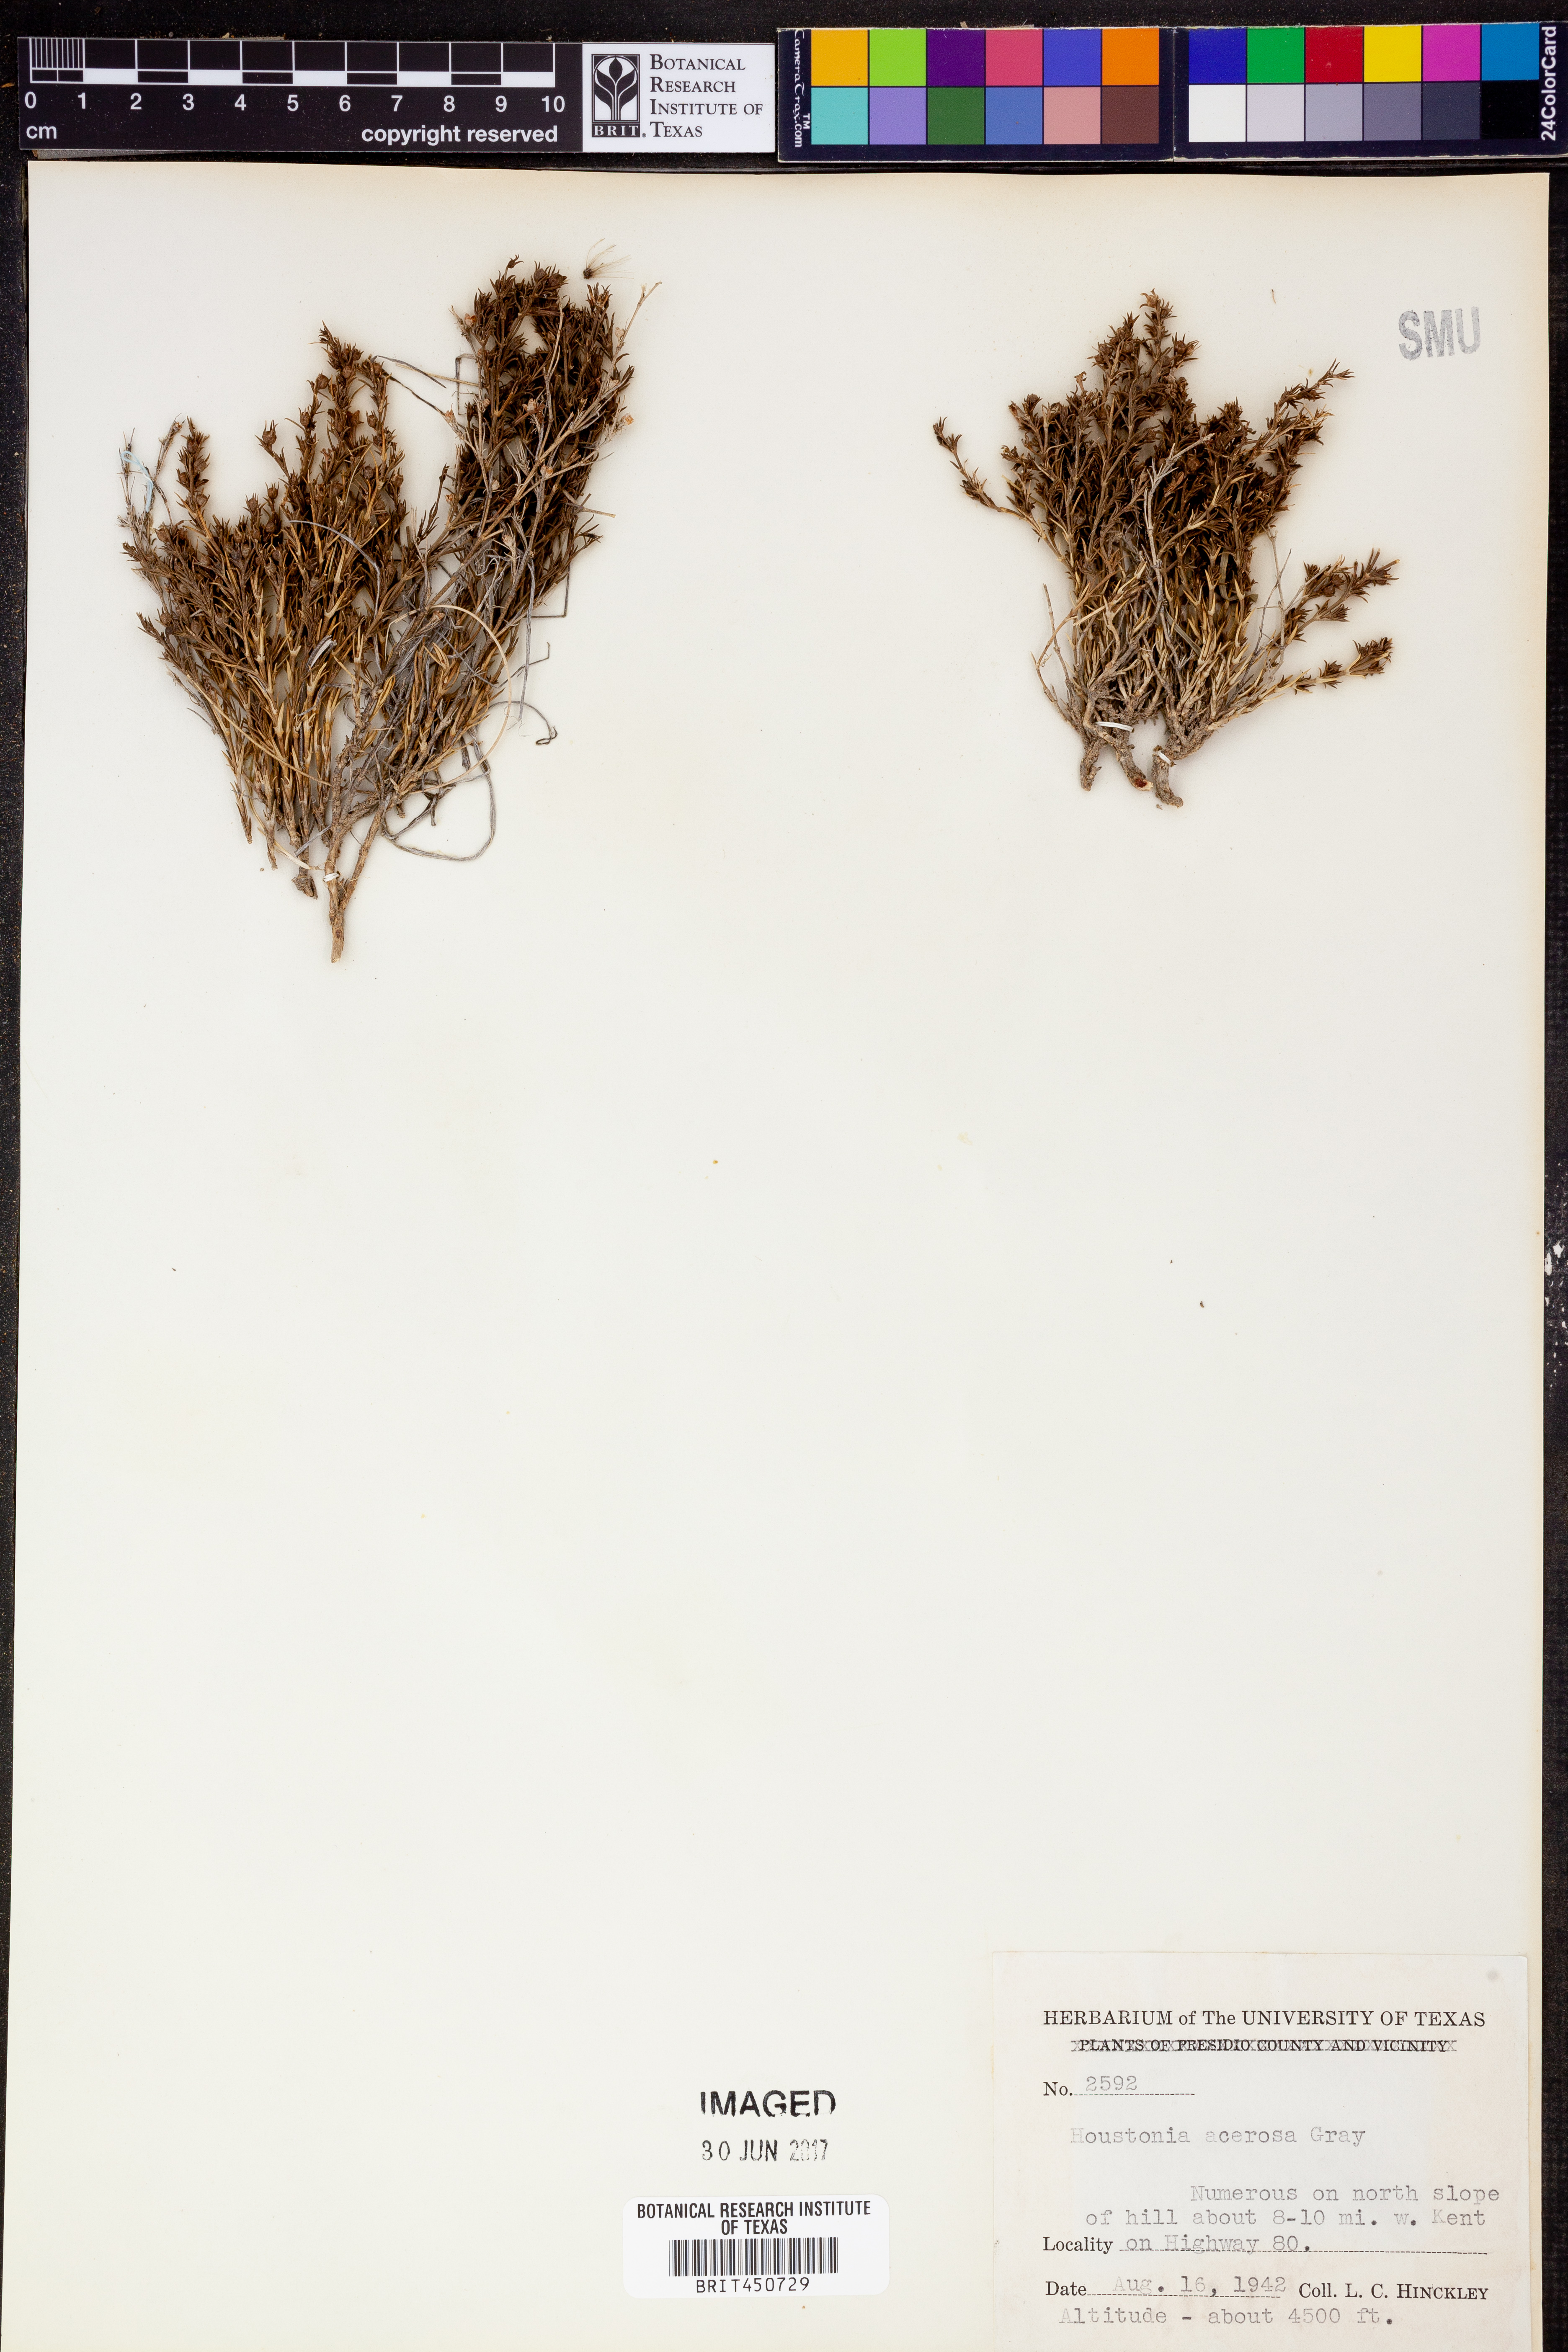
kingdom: Plantae
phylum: Tracheophyta
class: Magnoliopsida
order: Gentianales
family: Rubiaceae
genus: Houstonia
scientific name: Houstonia acerosa
